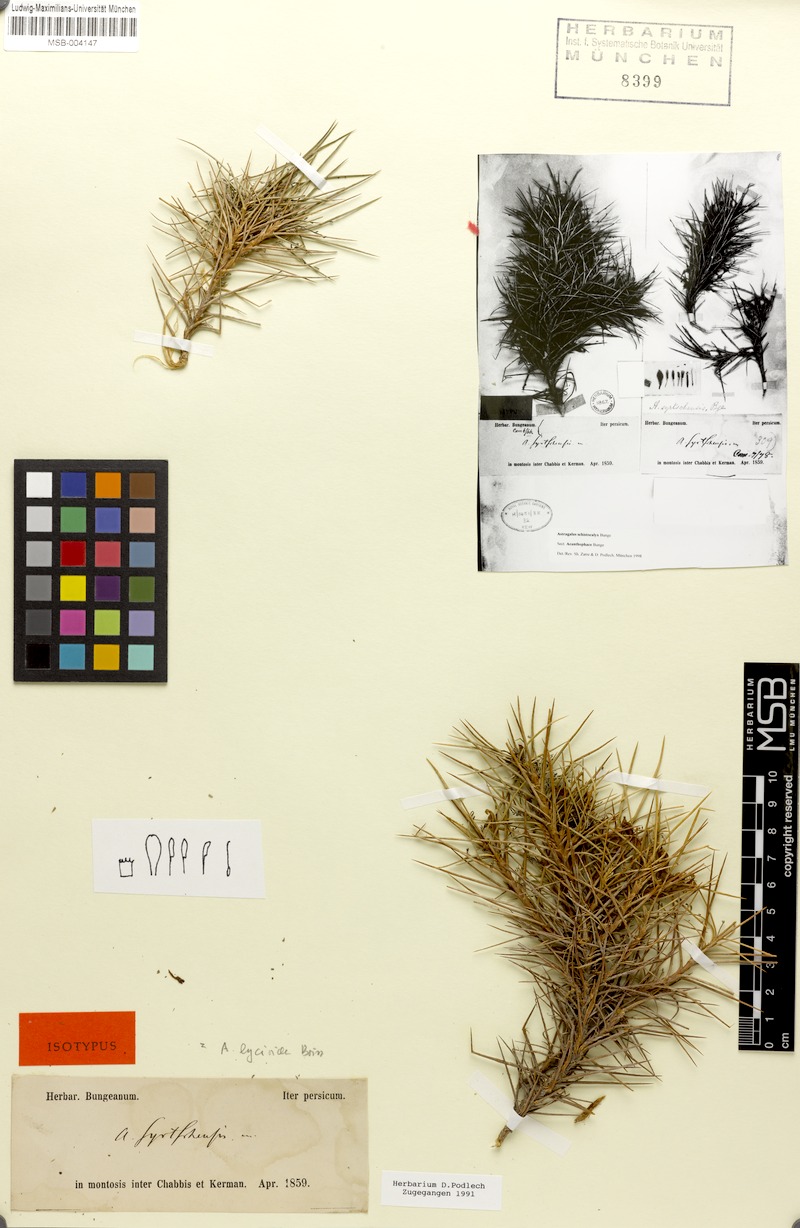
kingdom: Plantae
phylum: Tracheophyta
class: Magnoliopsida
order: Fabales
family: Fabaceae
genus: Astragalus
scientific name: Astragalus lycioides
